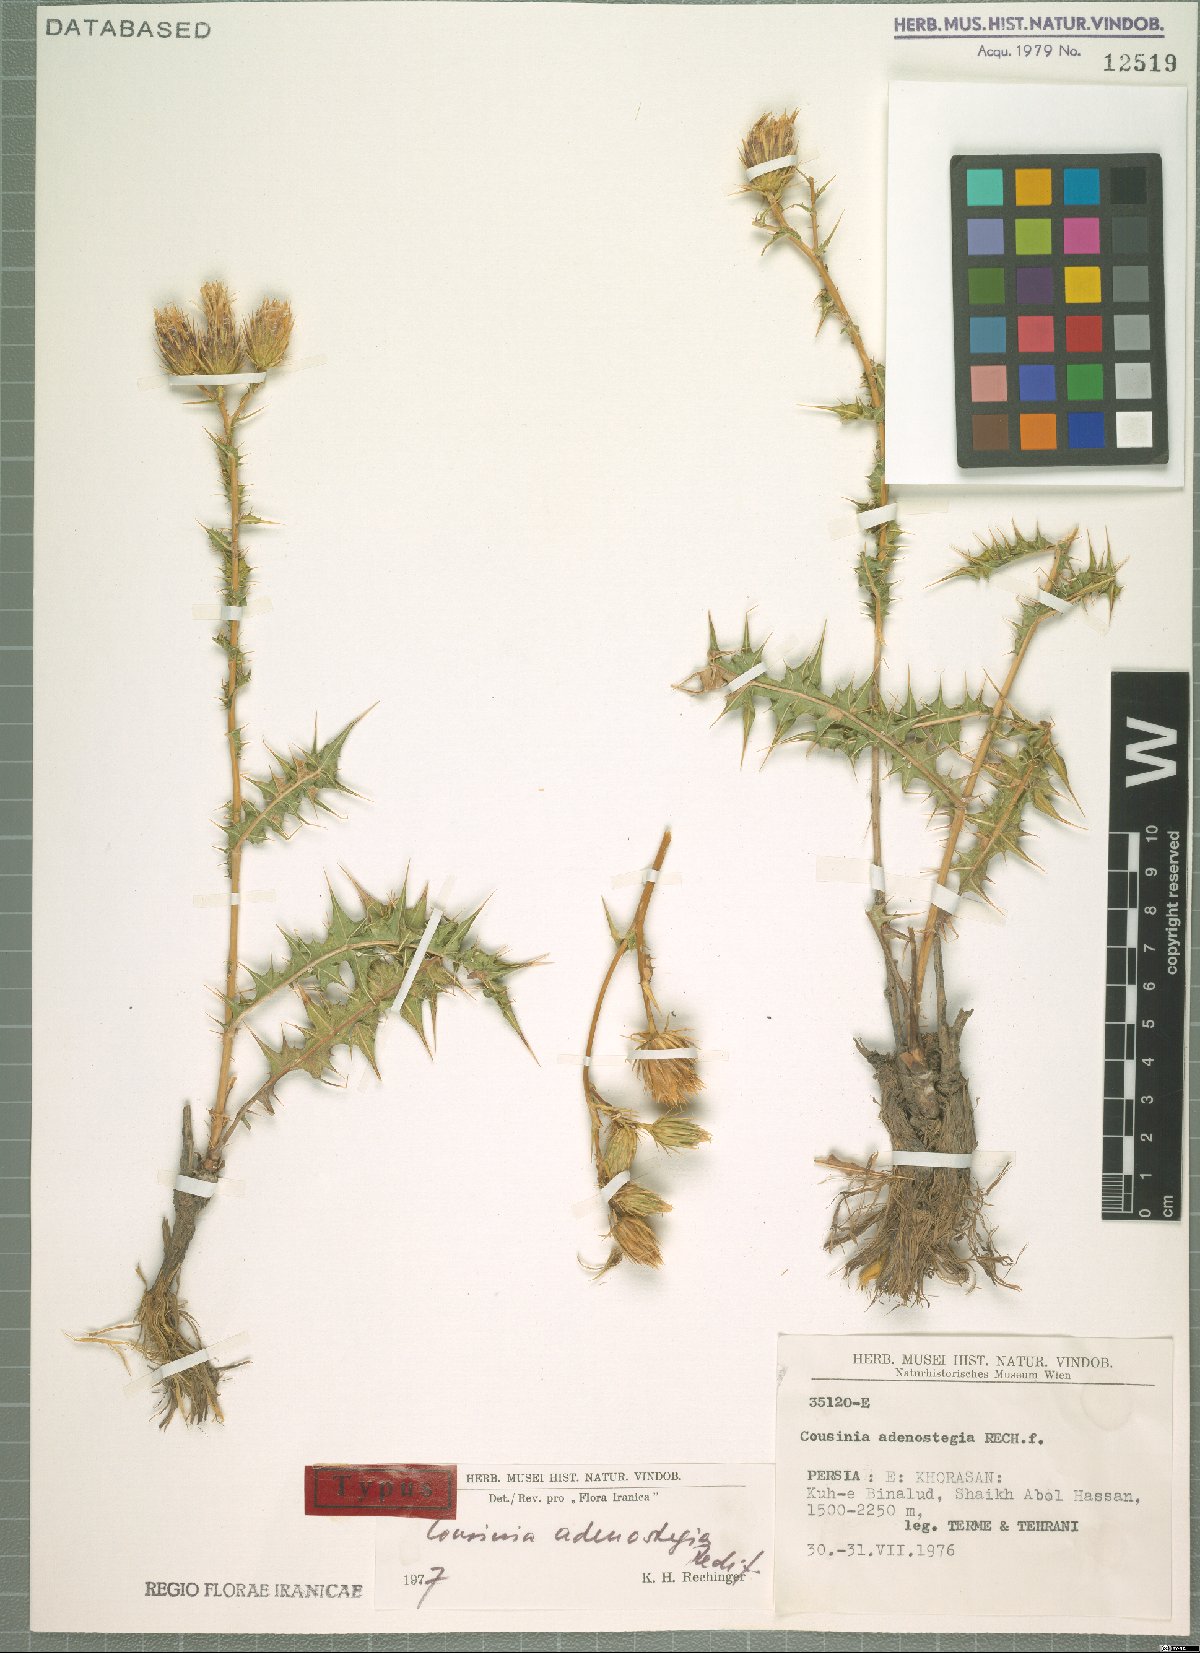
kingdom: Plantae
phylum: Tracheophyta
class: Magnoliopsida
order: Asterales
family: Asteraceae
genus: Cousinia
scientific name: Cousinia czerniakowskae
